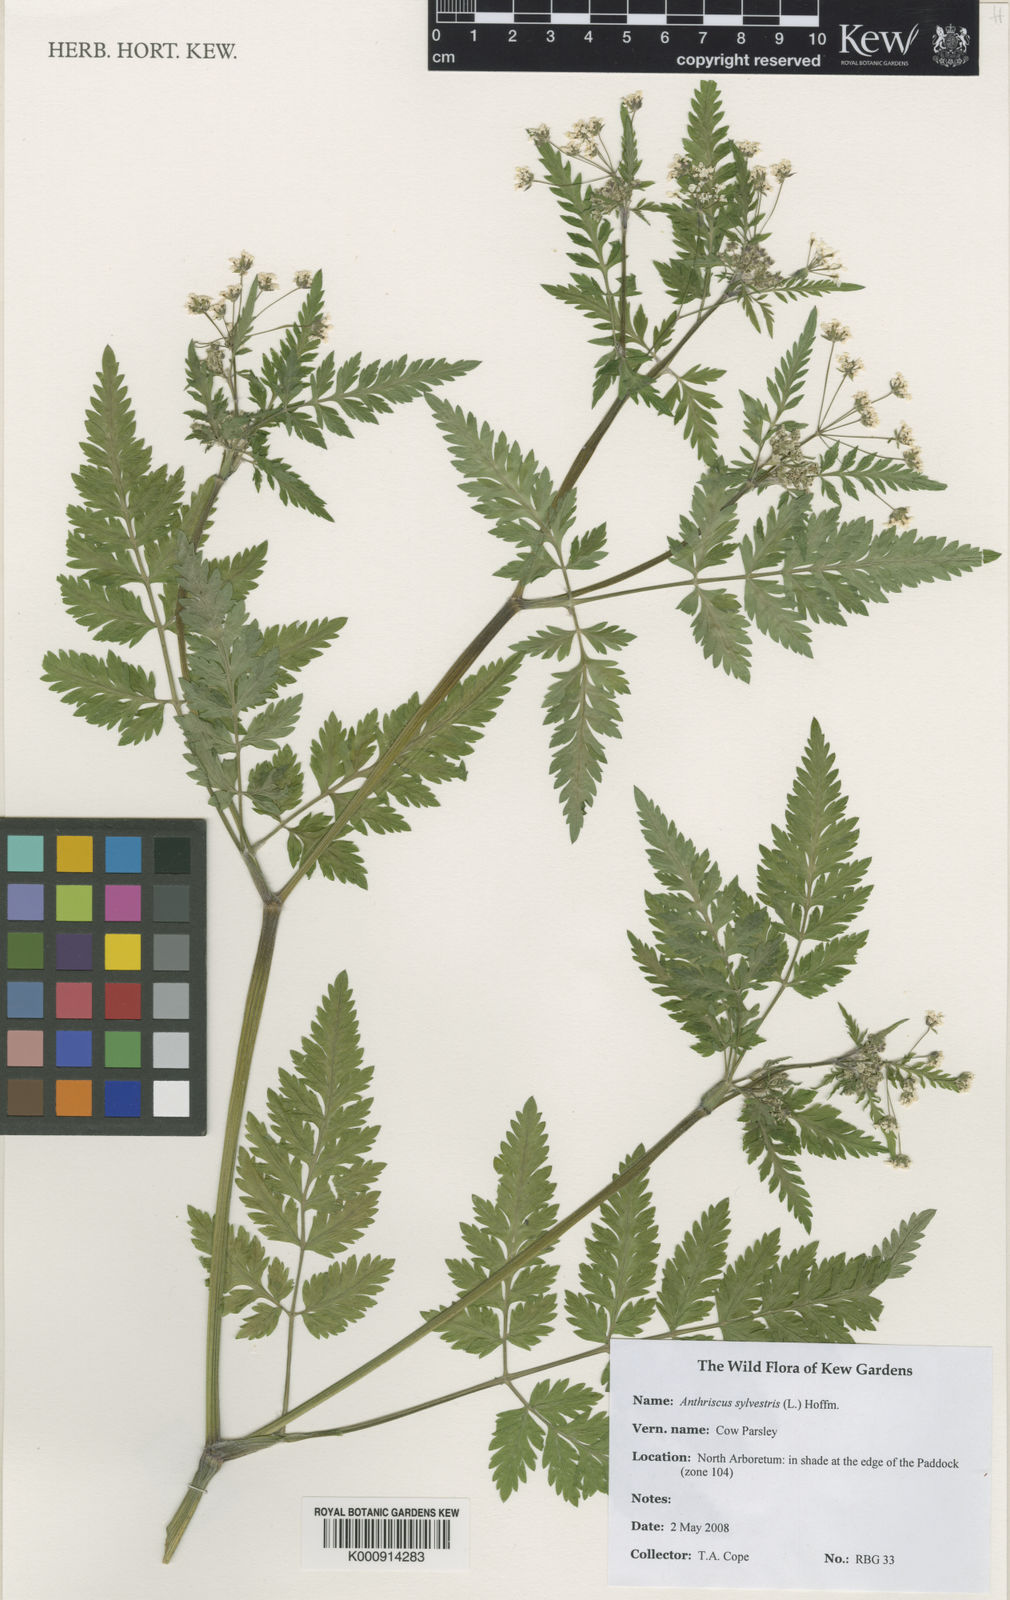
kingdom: Plantae
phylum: Tracheophyta
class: Magnoliopsida
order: Apiales
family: Apiaceae
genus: Anthriscus
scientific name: Anthriscus sylvestris
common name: Cow parsley
